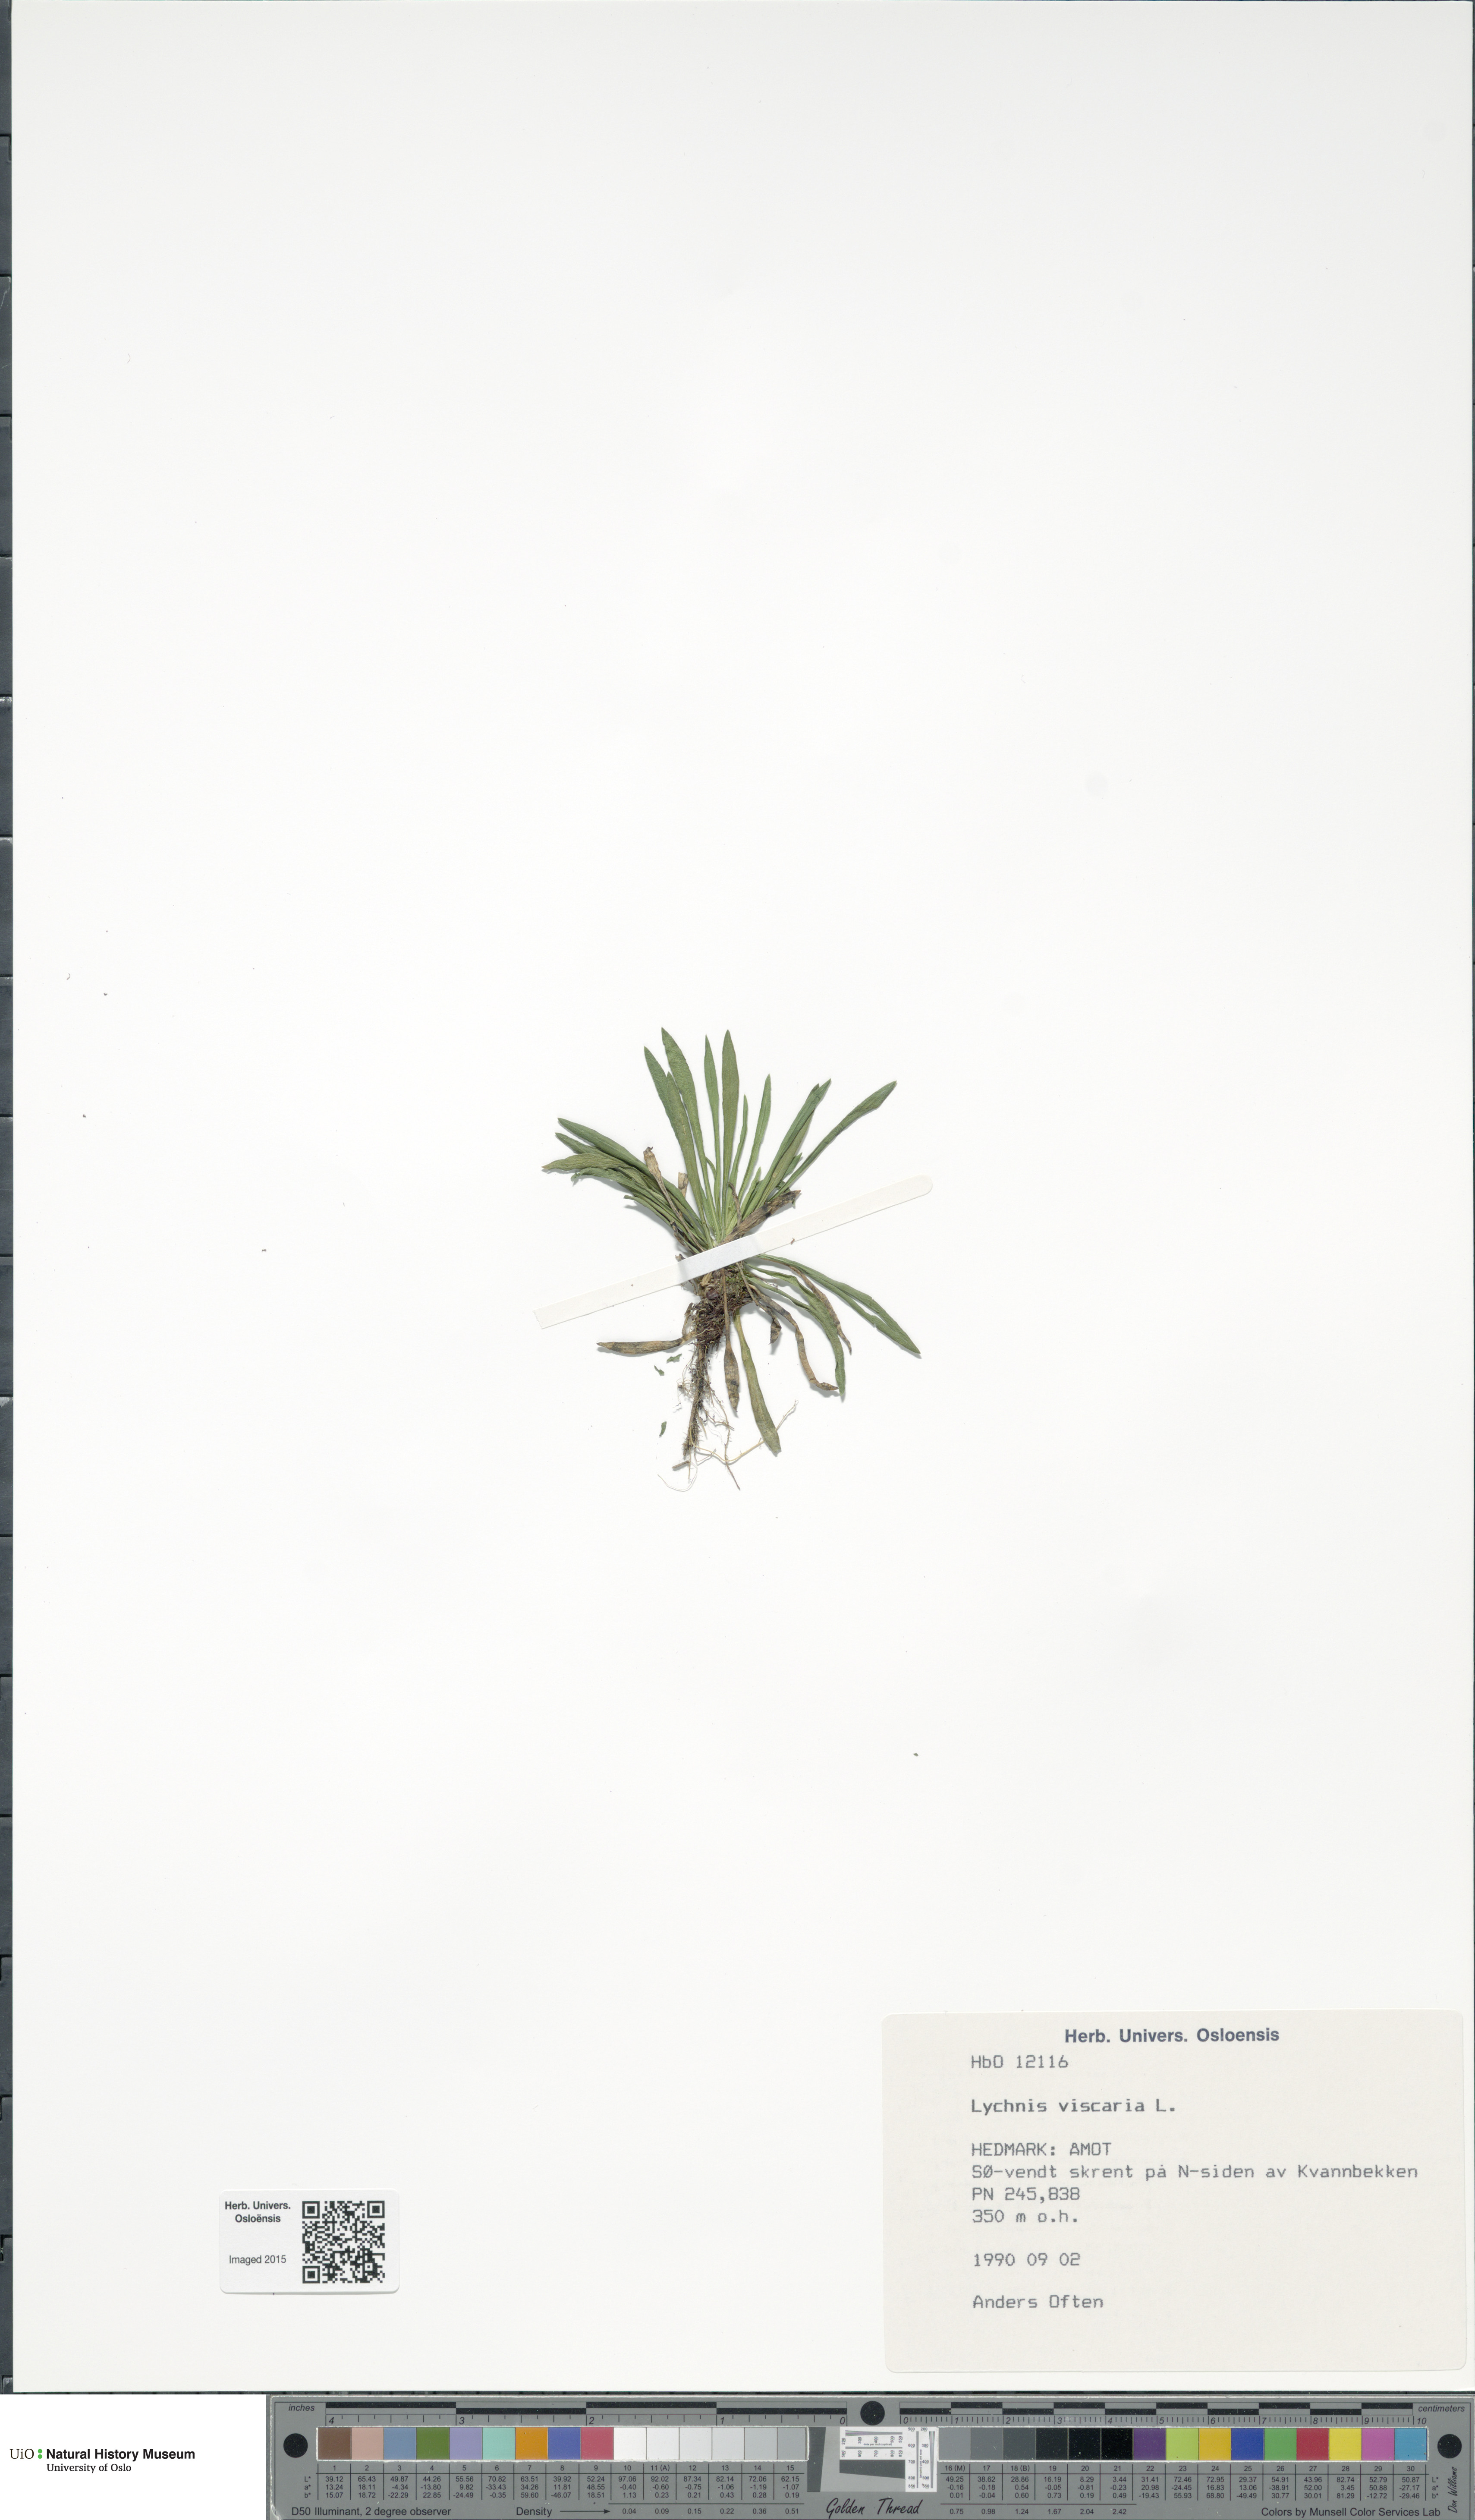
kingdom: Plantae
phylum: Tracheophyta
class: Magnoliopsida
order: Caryophyllales
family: Caryophyllaceae
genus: Viscaria
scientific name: Viscaria vulgaris
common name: Clammy campion
